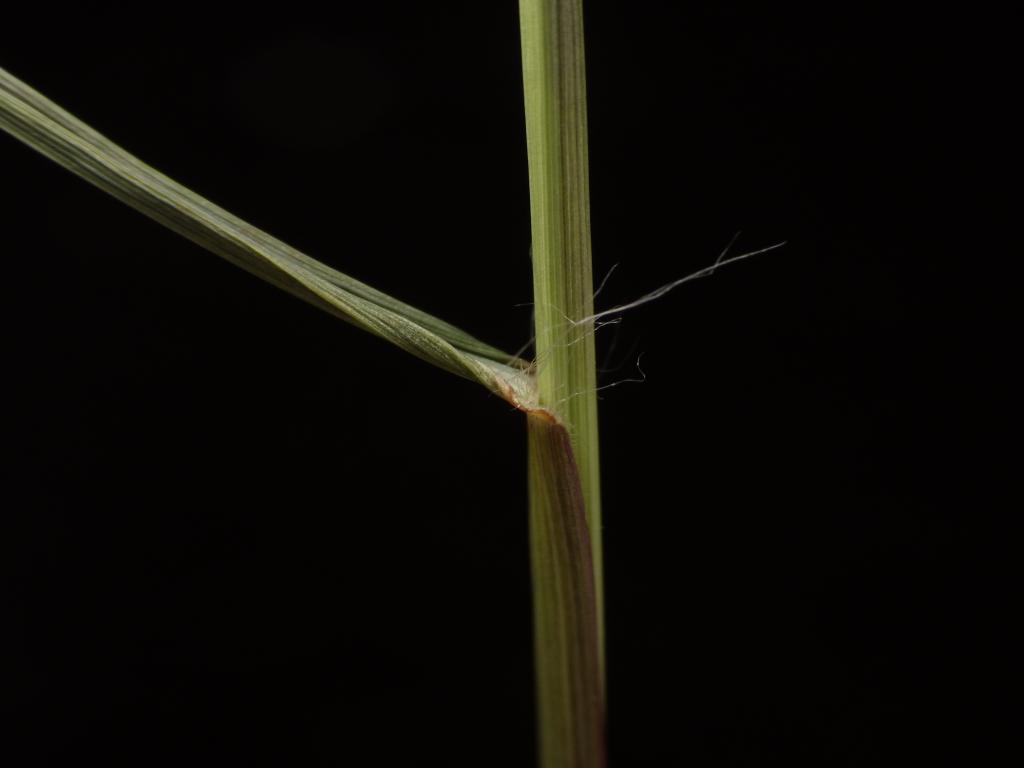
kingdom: Plantae
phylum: Tracheophyta
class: Liliopsida
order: Poales
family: Poaceae
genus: Eragrostis
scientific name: Eragrostis atrovirens
